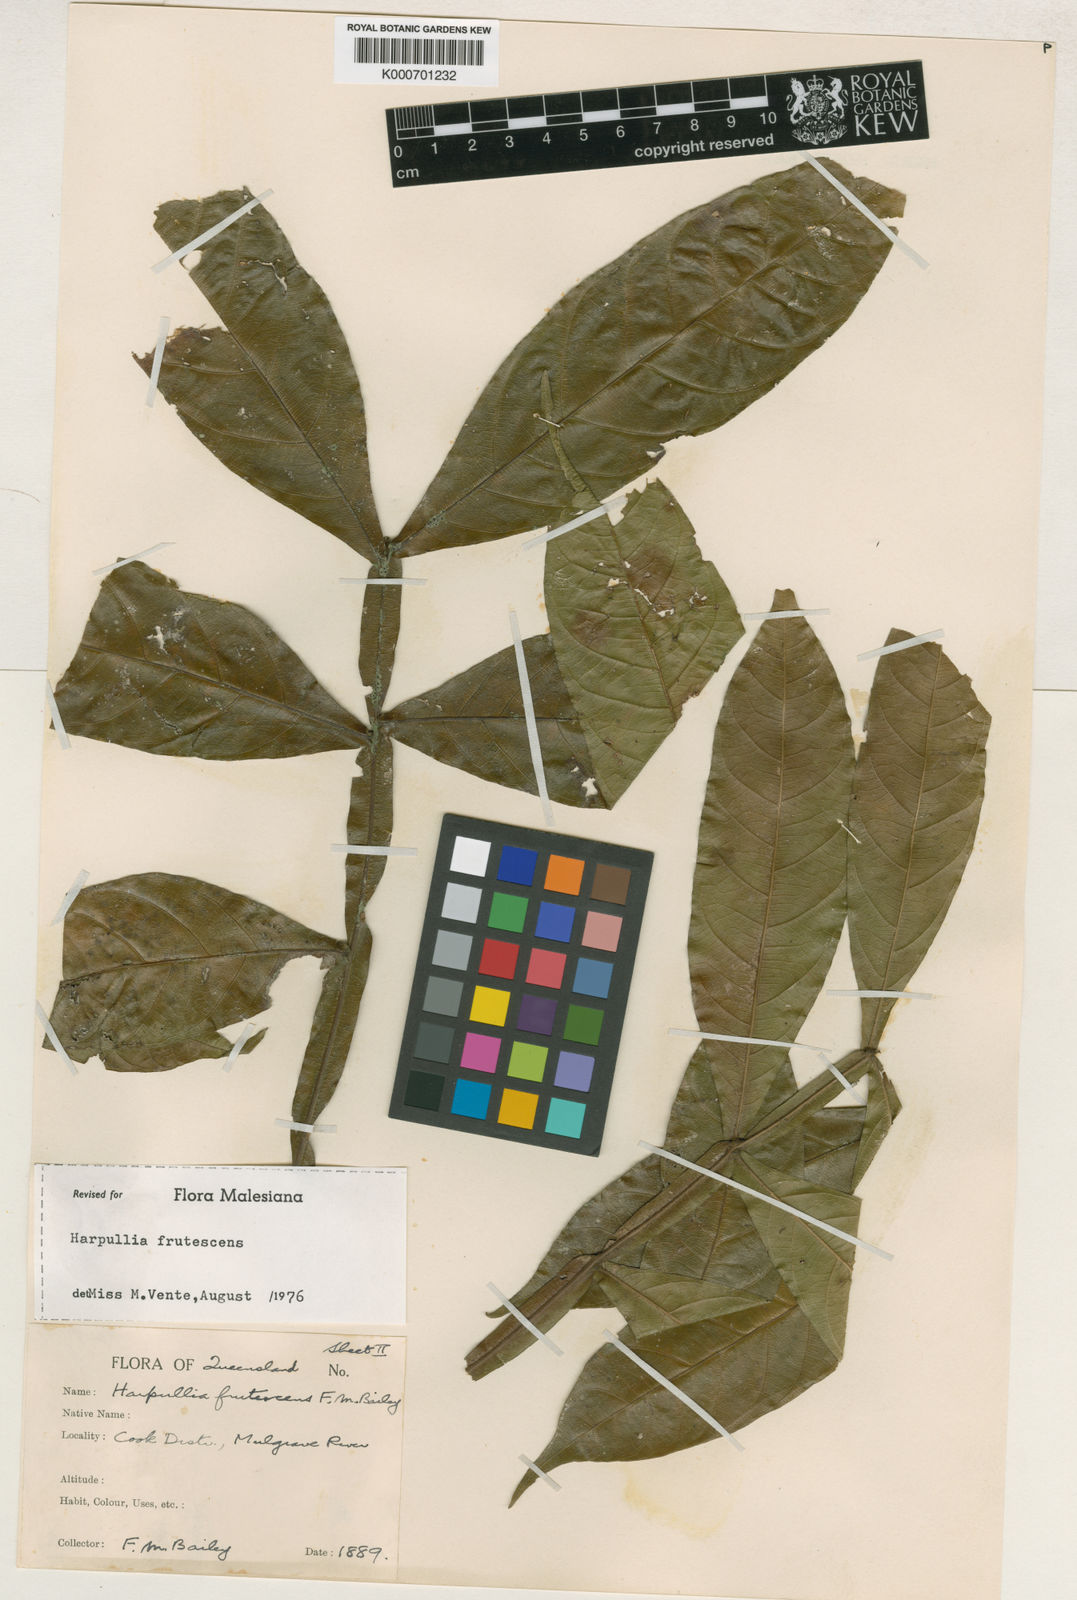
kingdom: Plantae
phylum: Tracheophyta
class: Magnoliopsida
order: Sapindales
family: Sapindaceae
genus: Harpullia
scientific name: Harpullia frutescens
